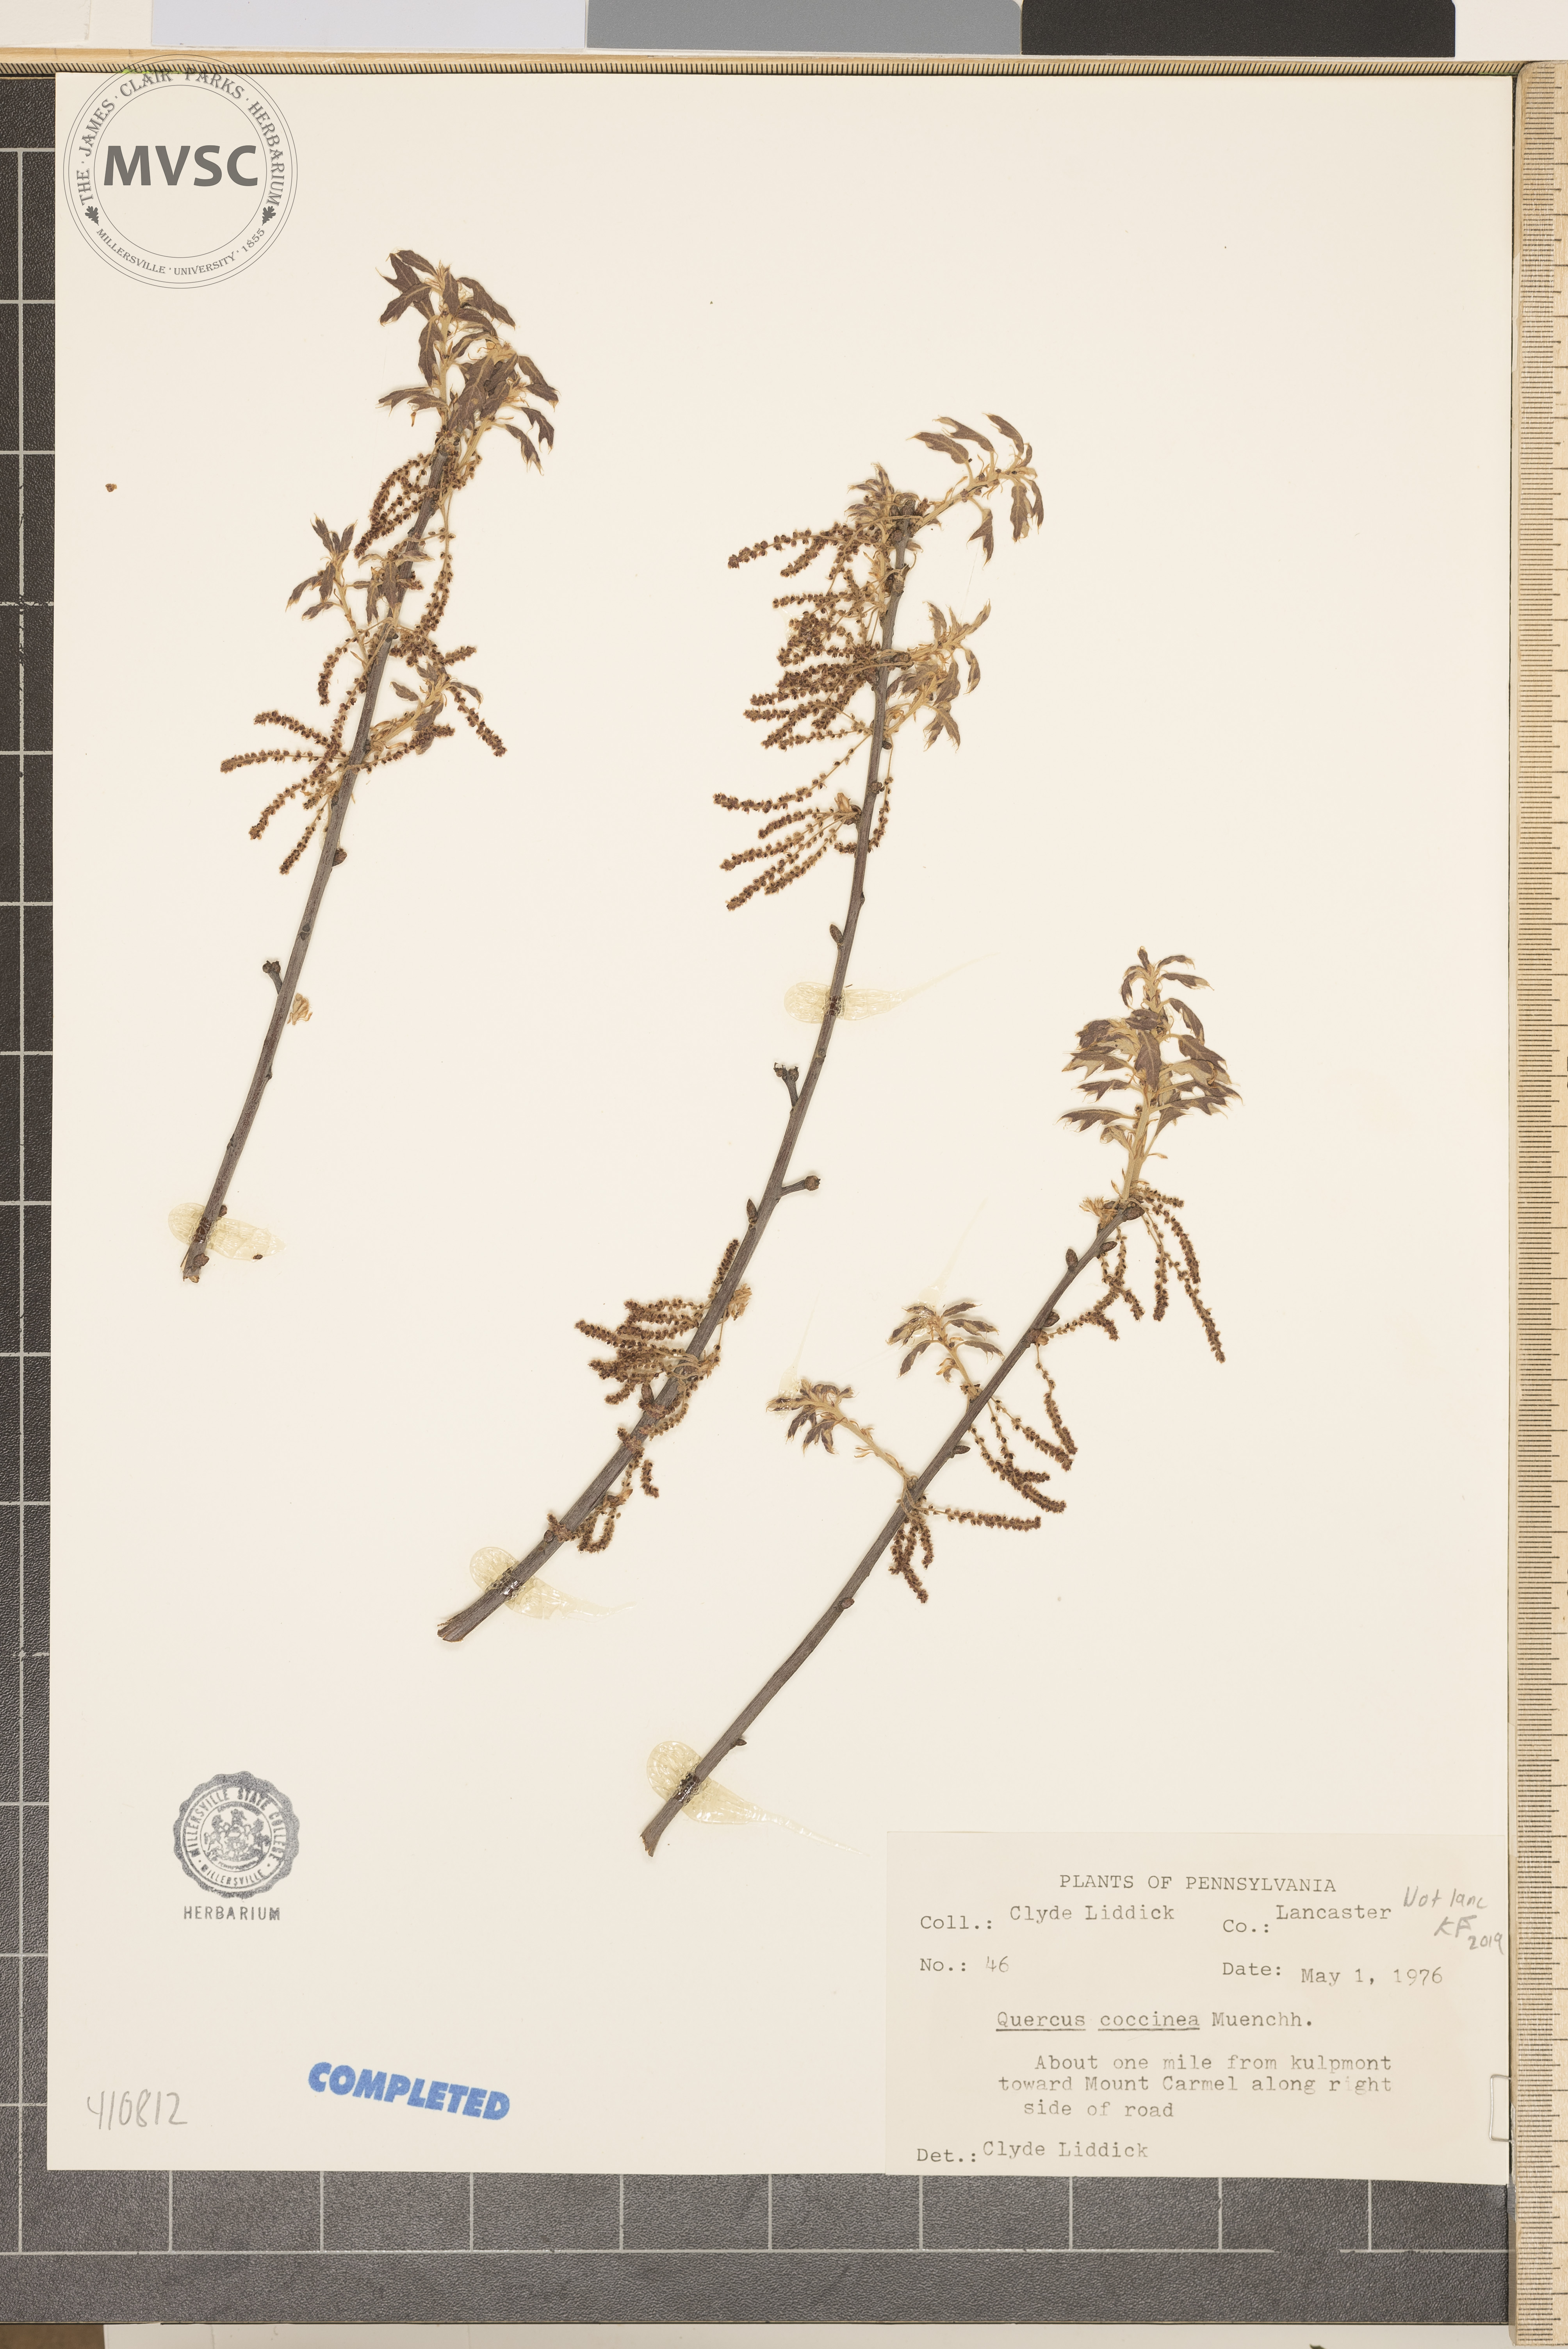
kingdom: Plantae
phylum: Tracheophyta
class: Magnoliopsida
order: Fagales
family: Fagaceae
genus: Quercus
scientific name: Quercus coccinea
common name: scarlet oak
